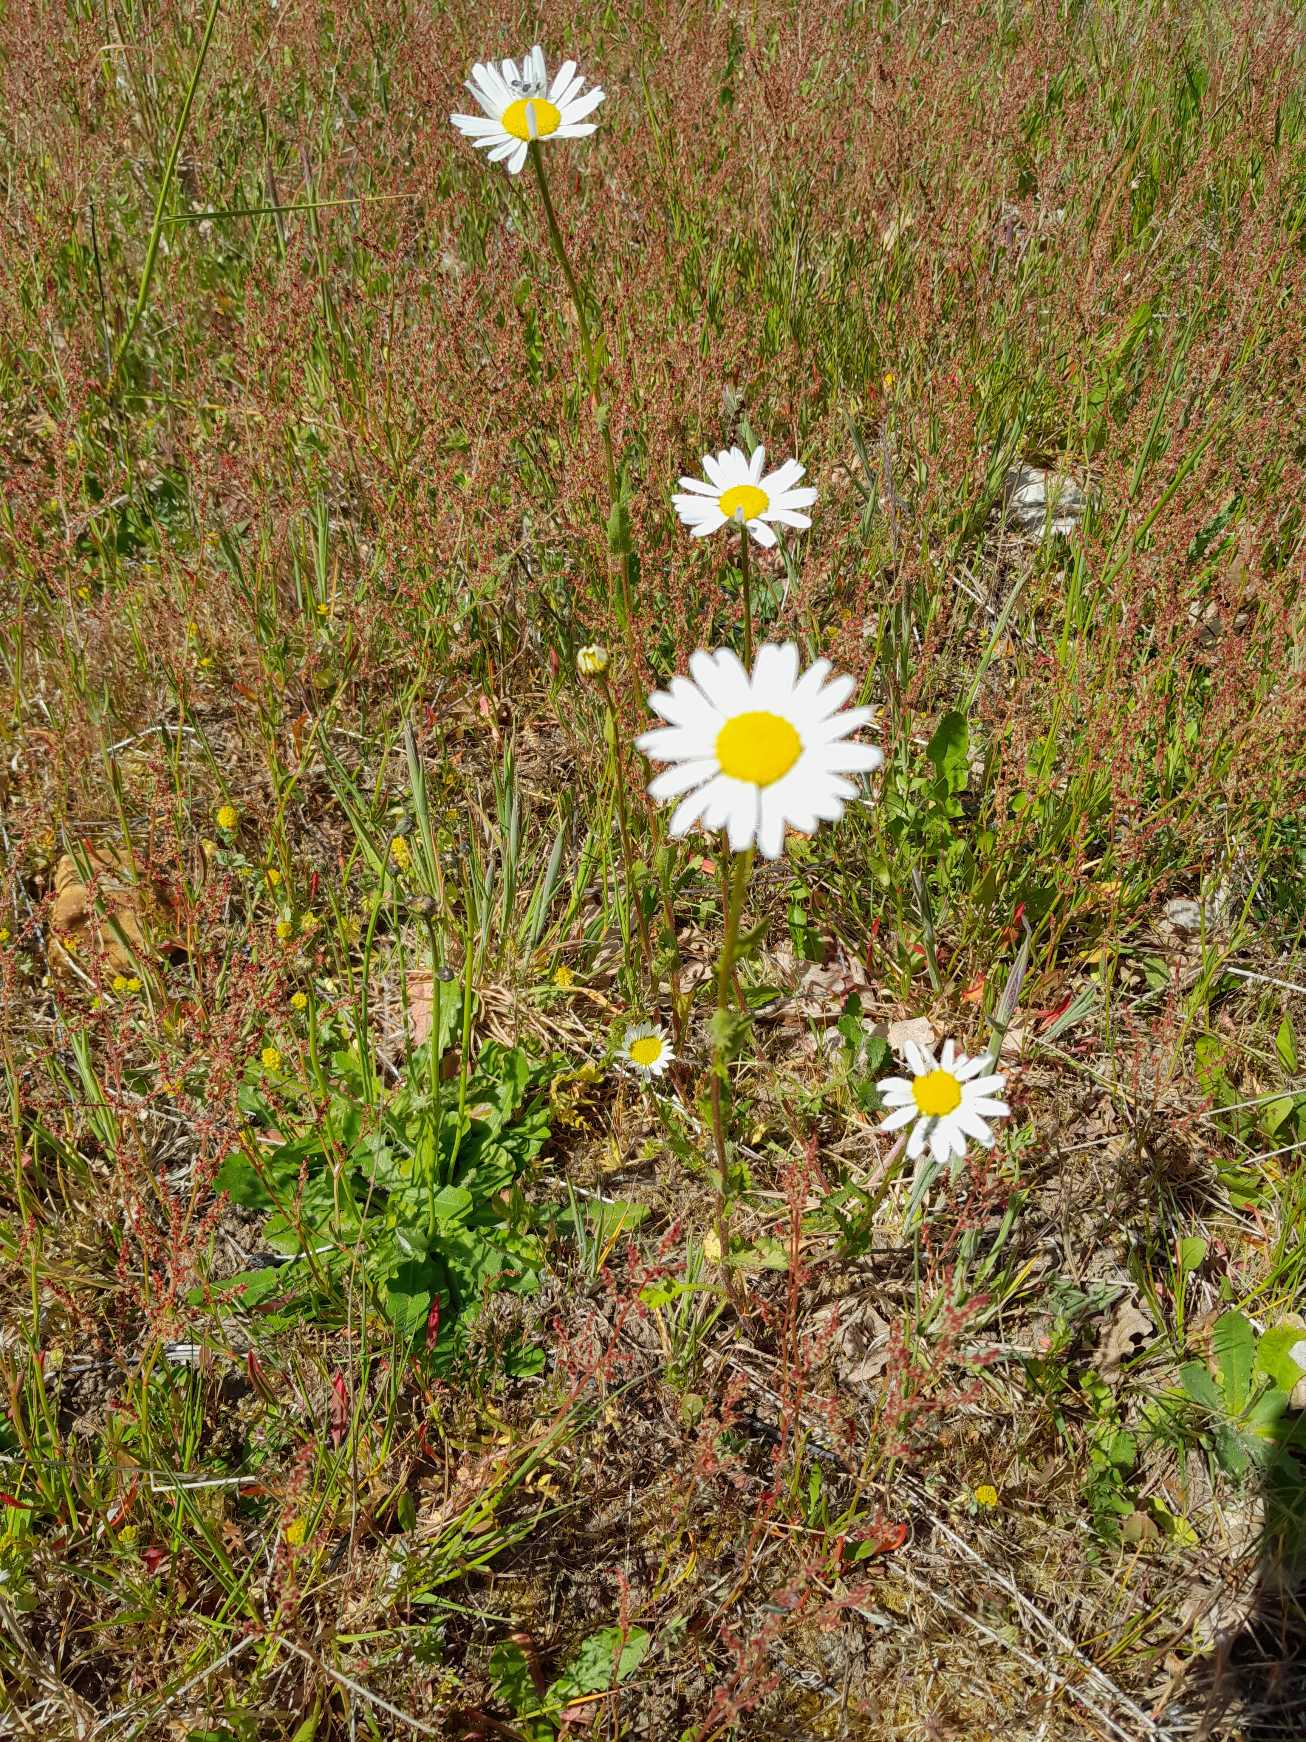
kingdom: Plantae
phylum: Tracheophyta
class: Magnoliopsida
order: Asterales
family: Asteraceae
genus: Leucanthemum
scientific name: Leucanthemum vulgare
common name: Hvid okseøje
